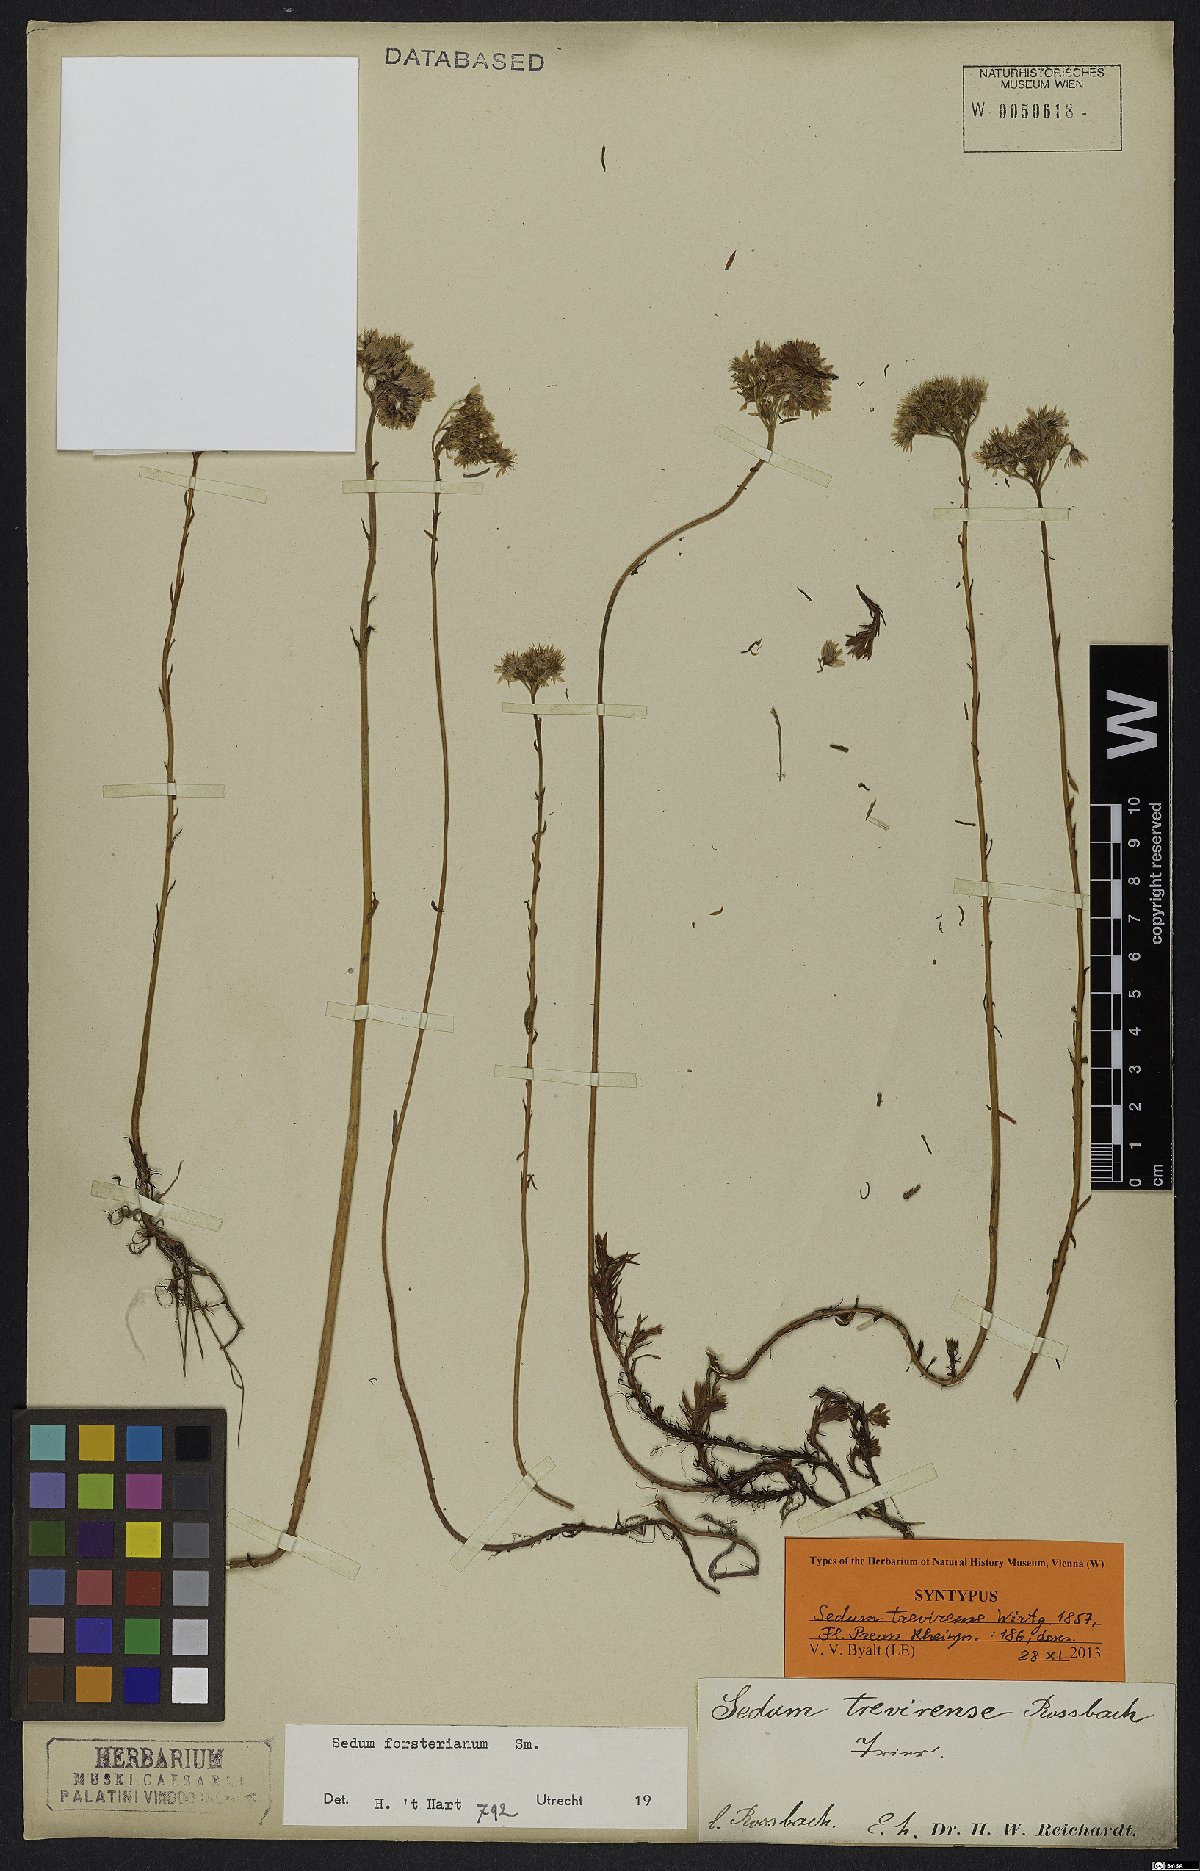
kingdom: Plantae
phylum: Tracheophyta
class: Magnoliopsida
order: Saxifragales
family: Crassulaceae
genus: Petrosedum
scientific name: Petrosedum forsterianum
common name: Forster's stonecrop
